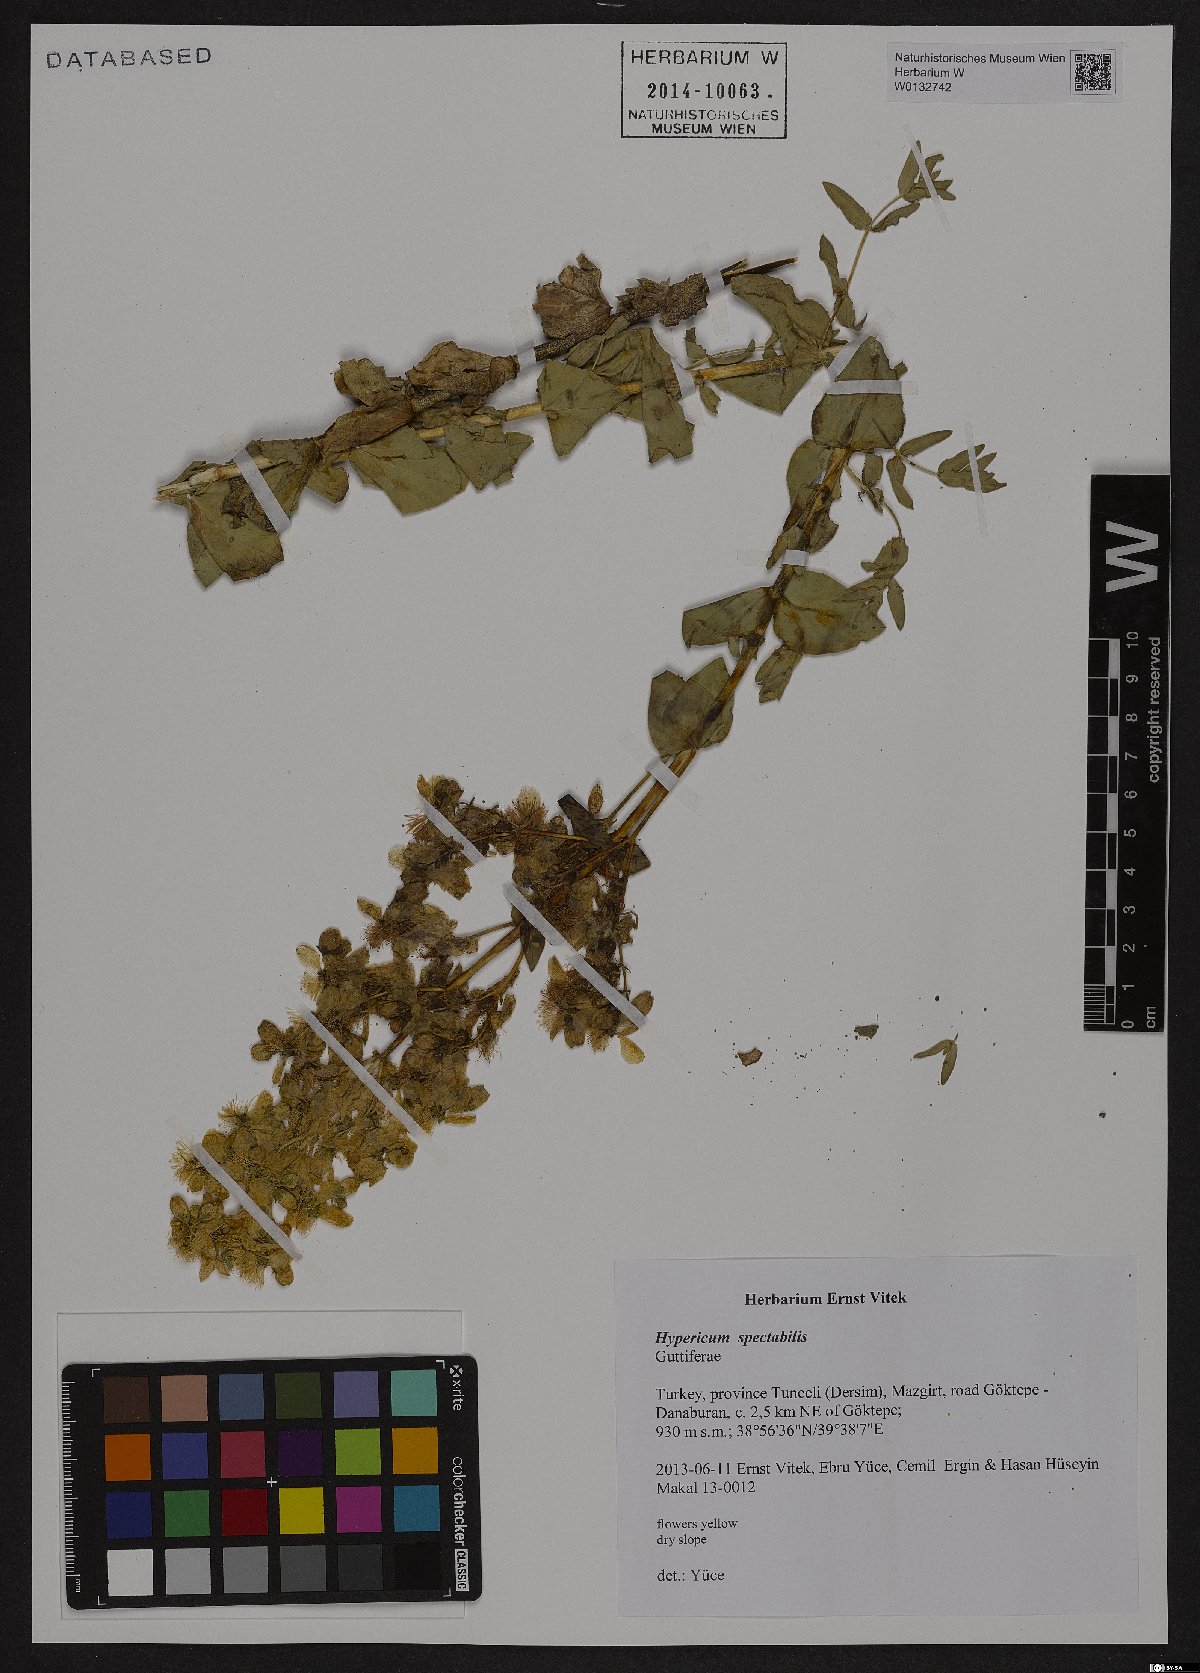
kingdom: Plantae
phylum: Tracheophyta
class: Magnoliopsida
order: Malpighiales
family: Hypericaceae
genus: Hypericum
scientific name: Hypericum spectabile
